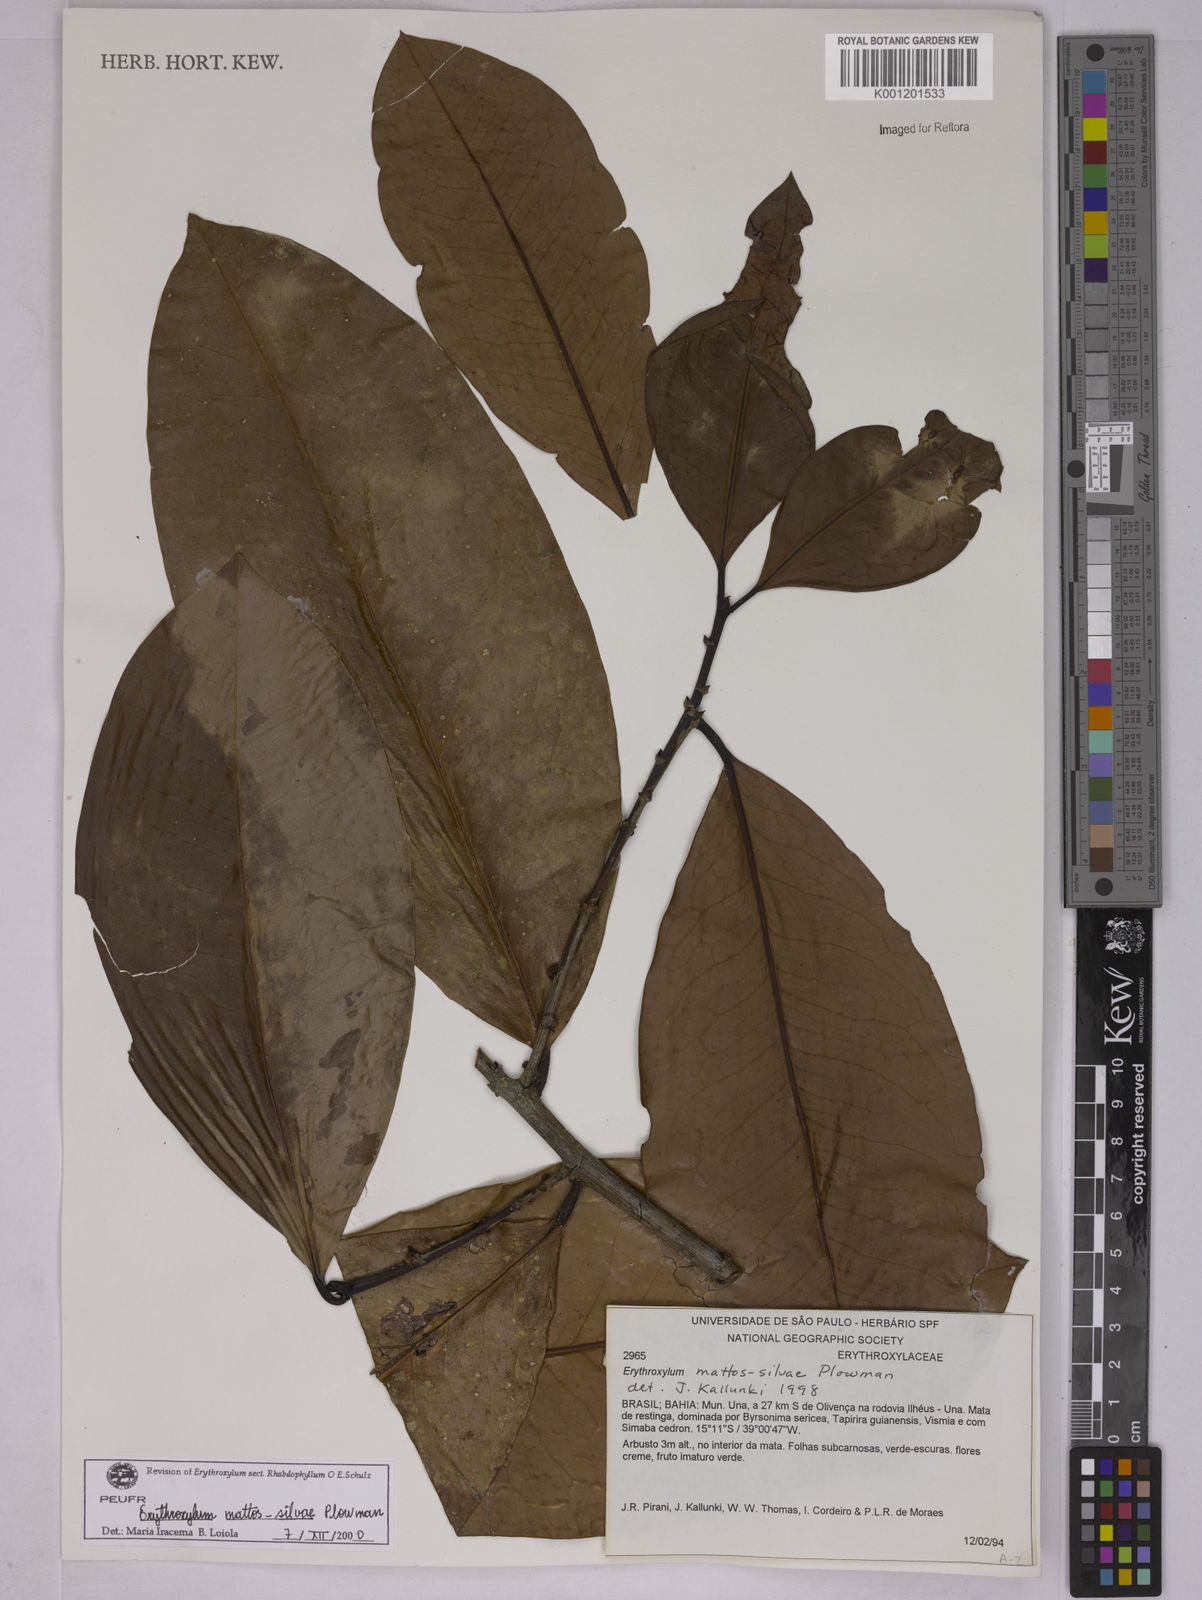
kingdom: Plantae
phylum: Tracheophyta
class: Magnoliopsida
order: Malpighiales
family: Erythroxylaceae
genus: Erythroxylum
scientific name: Erythroxylum mattos-silvae
